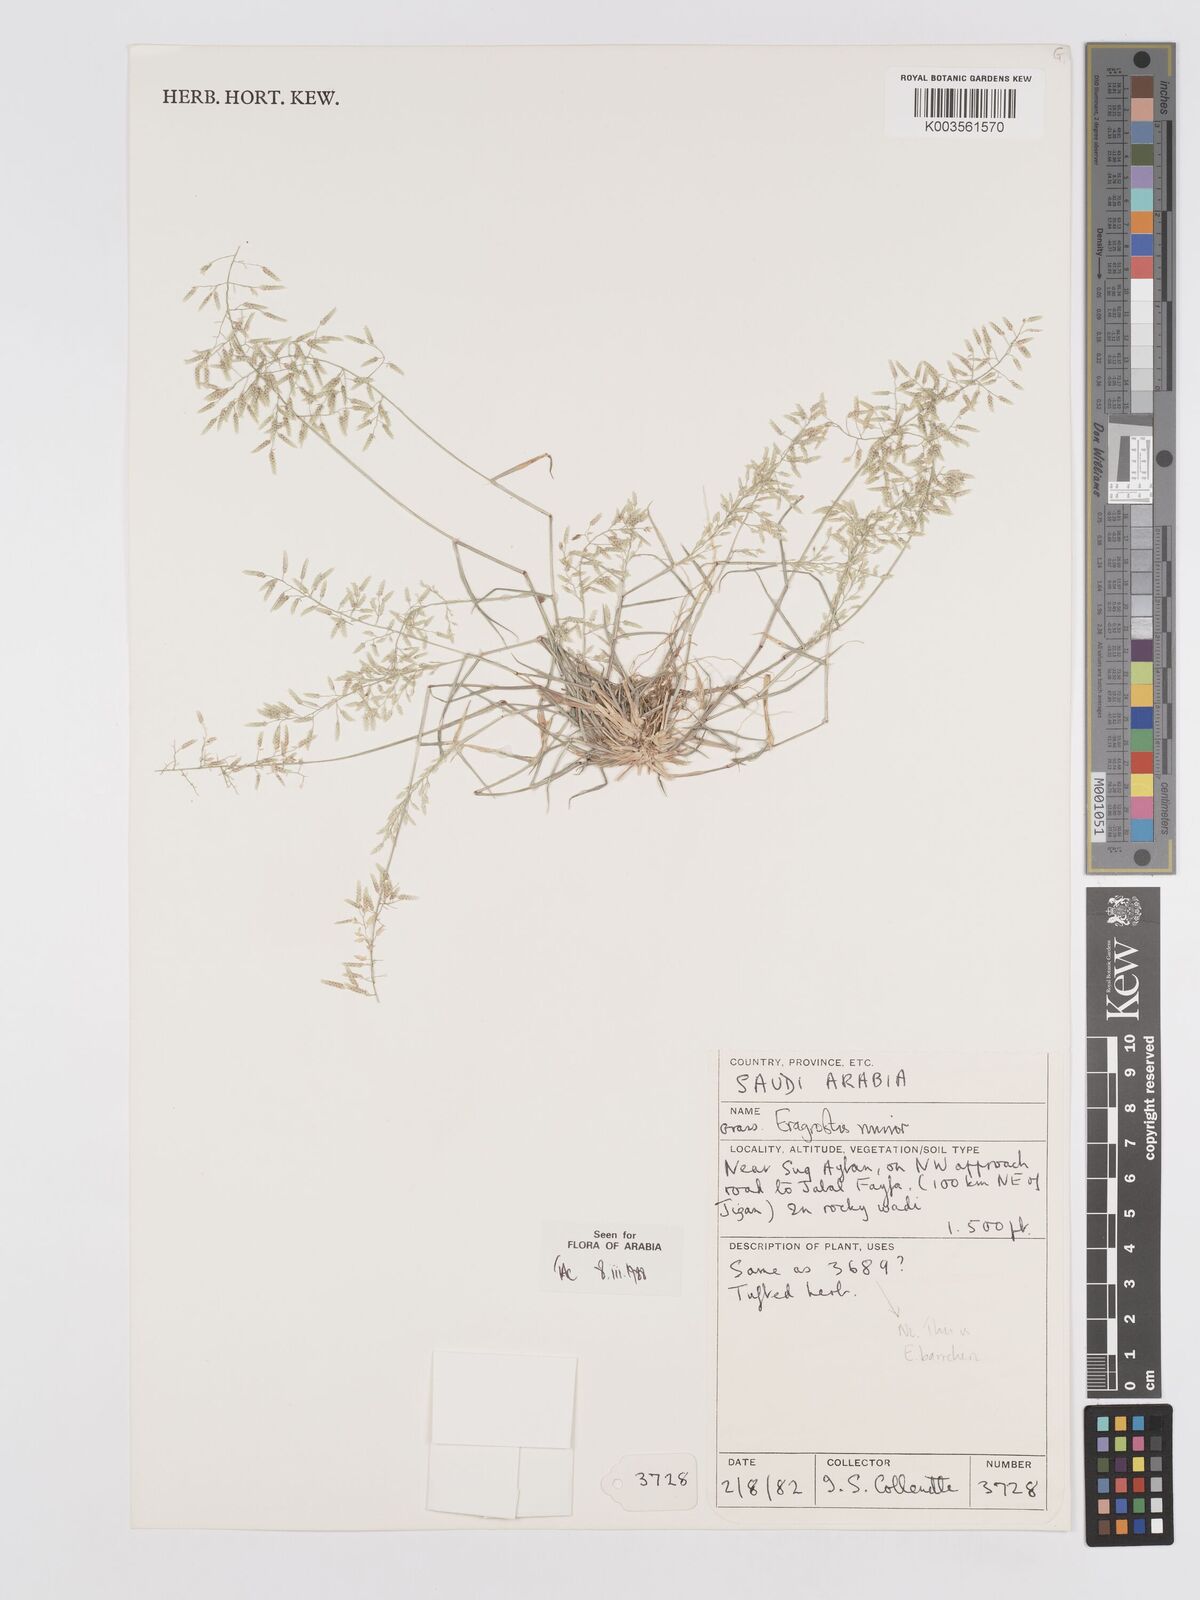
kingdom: Plantae
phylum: Tracheophyta
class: Liliopsida
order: Poales
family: Poaceae
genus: Eragrostis
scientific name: Eragrostis minor
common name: Small love-grass
